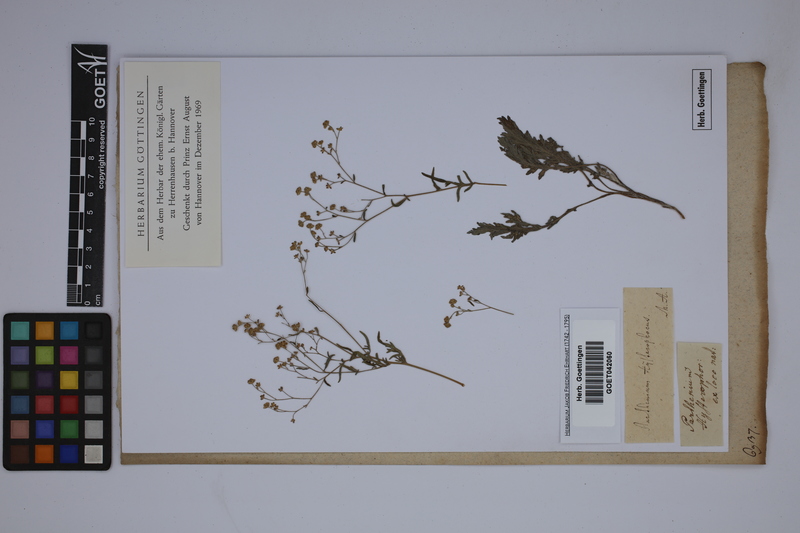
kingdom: Plantae
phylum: Tracheophyta
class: Magnoliopsida
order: Asterales
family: Asteraceae
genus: Parthenium
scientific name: Parthenium hysterophorus
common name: Santa maria feverfew
